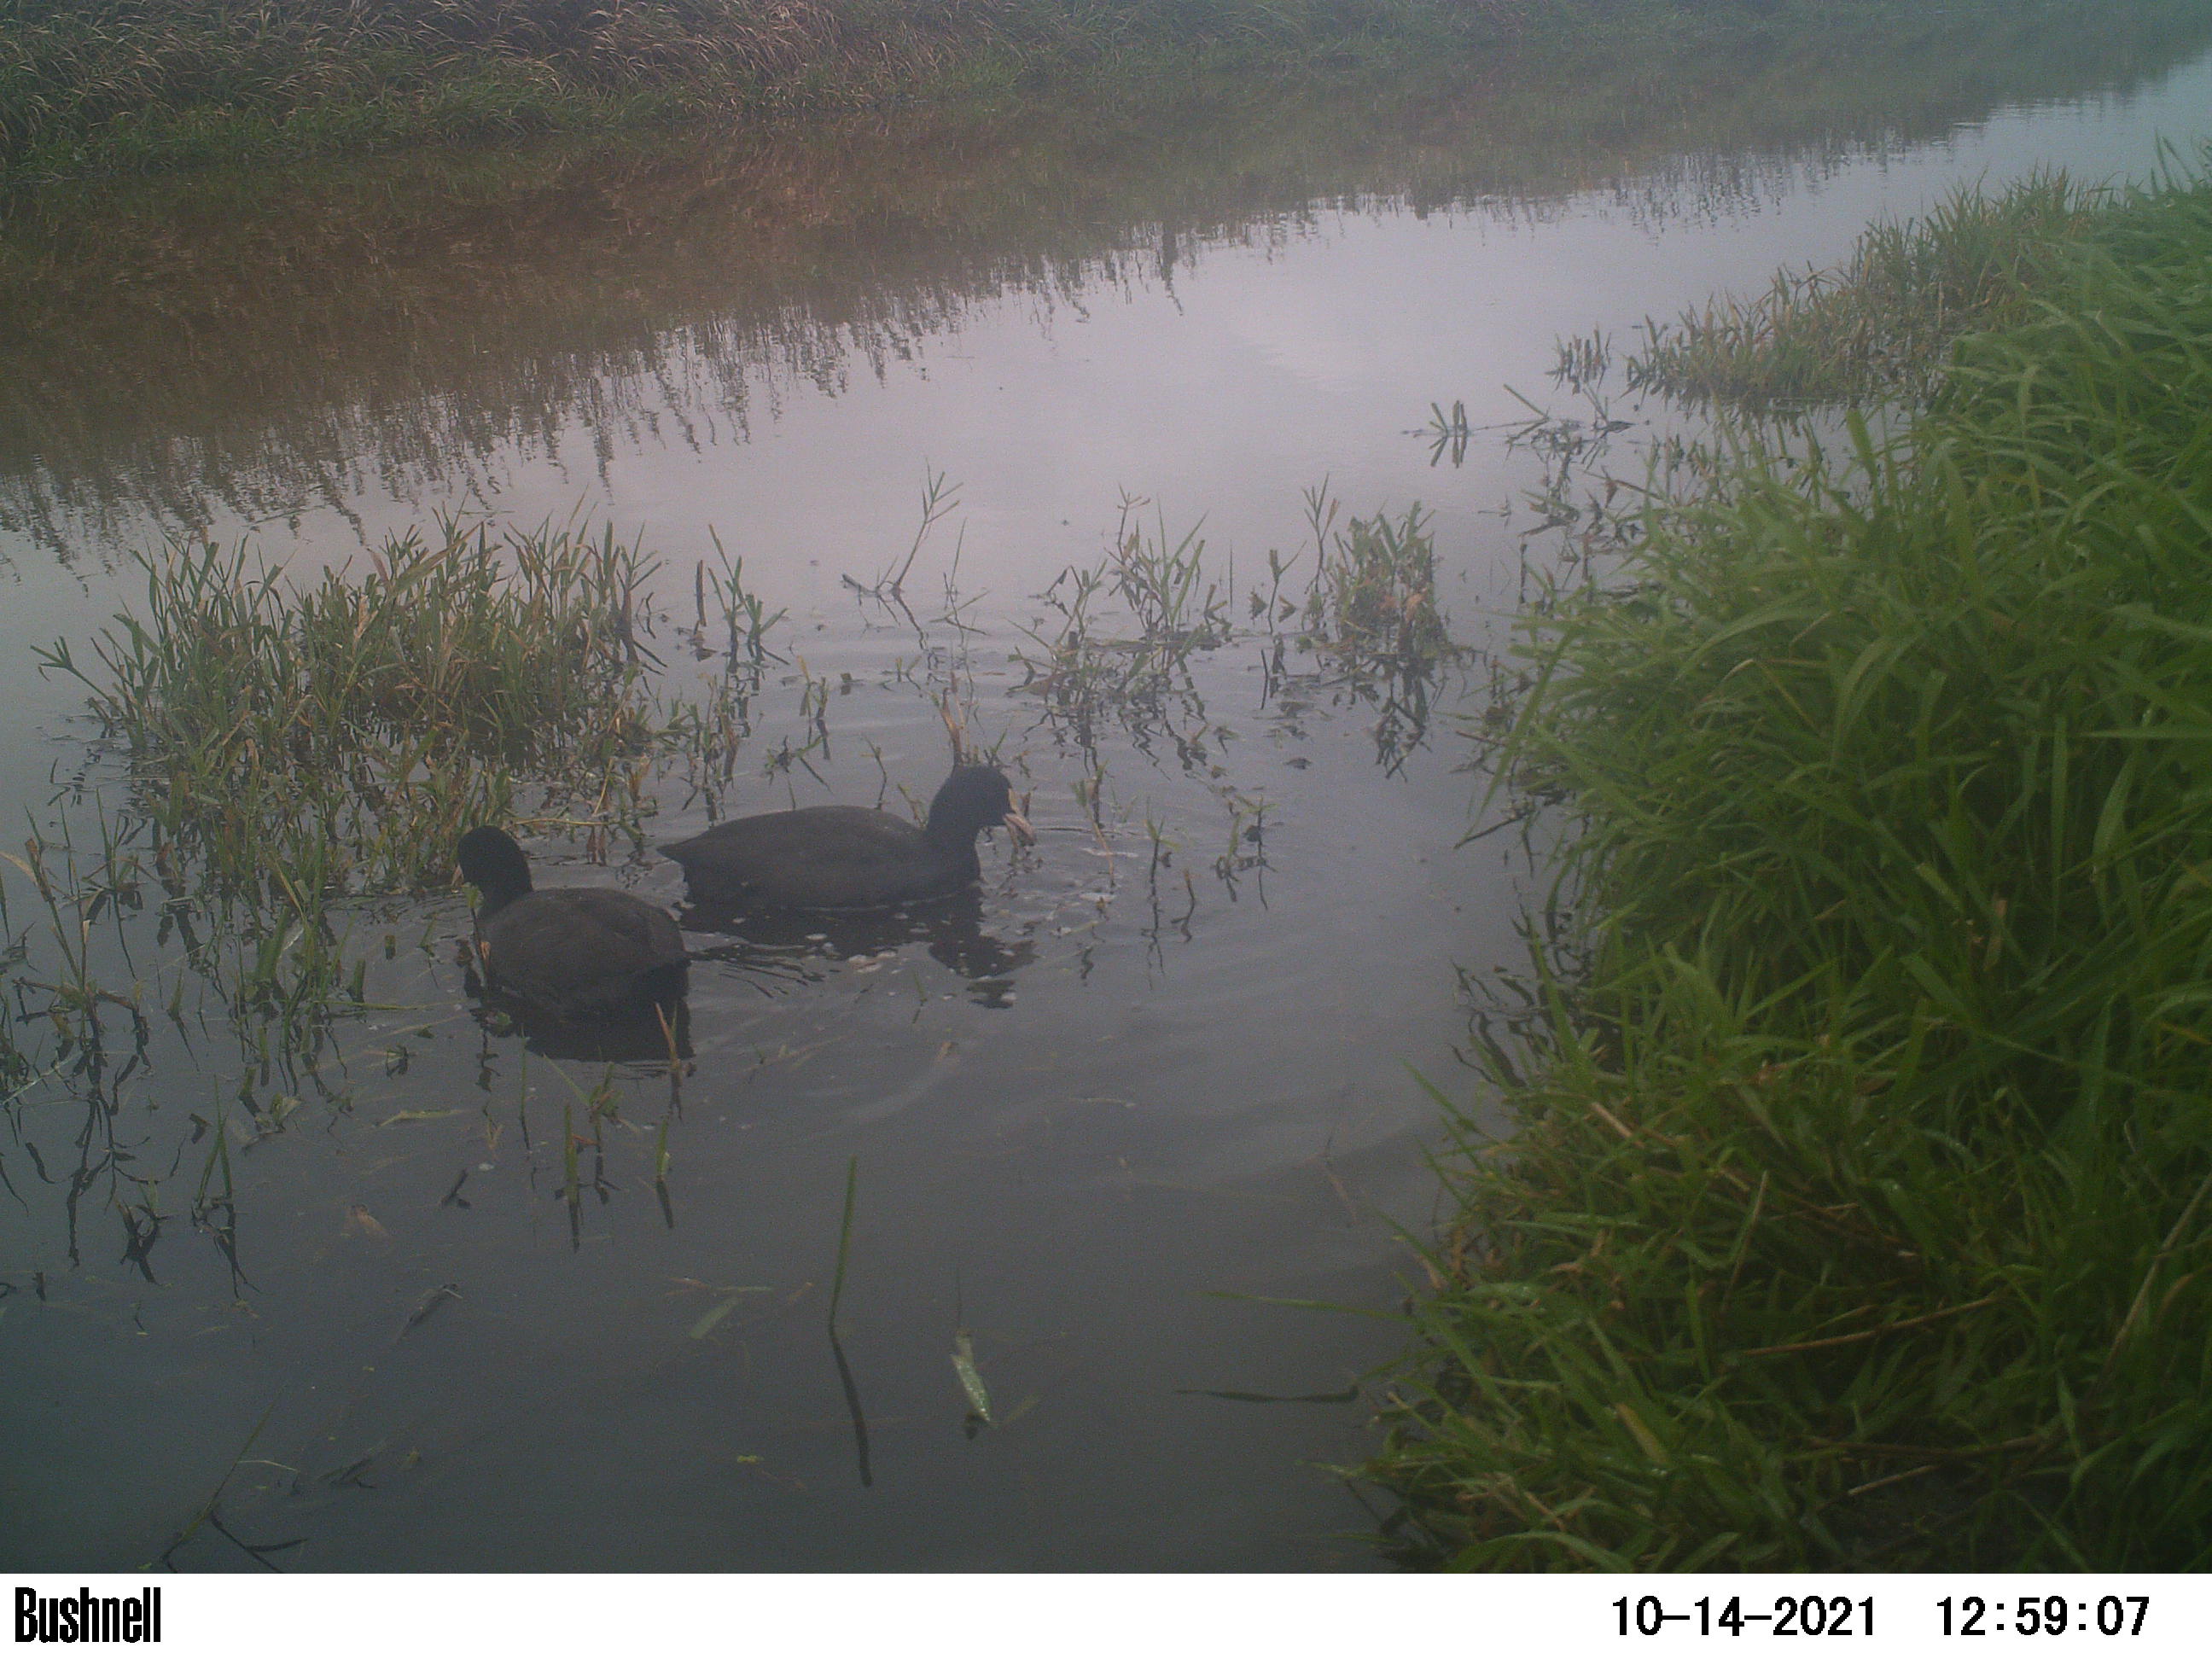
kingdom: Animalia
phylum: Chordata
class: Aves
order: Gruiformes
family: Rallidae
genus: Fulica
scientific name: Fulica atra
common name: Eurasian coot
